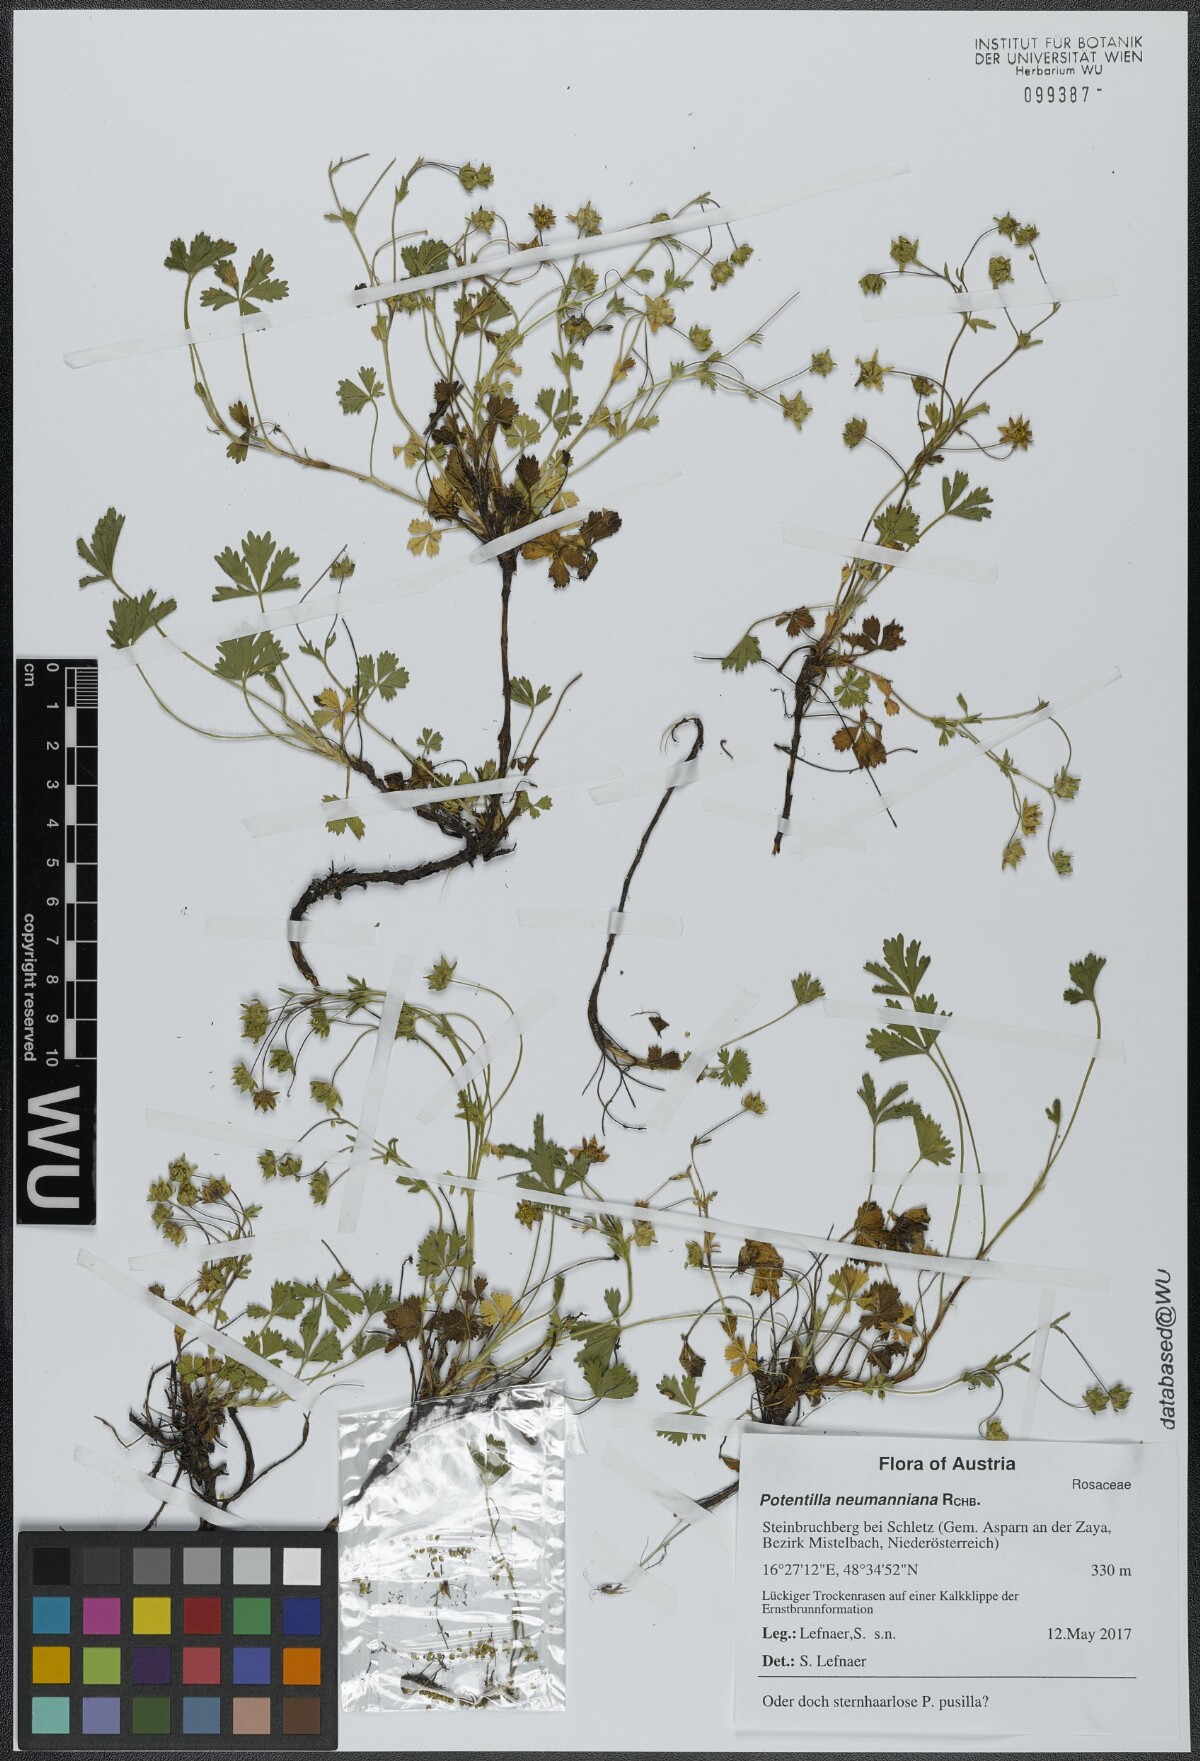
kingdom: Plantae
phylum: Tracheophyta
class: Magnoliopsida
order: Rosales
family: Rosaceae
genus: Potentilla
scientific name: Potentilla verna
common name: Spring cinquefoil
